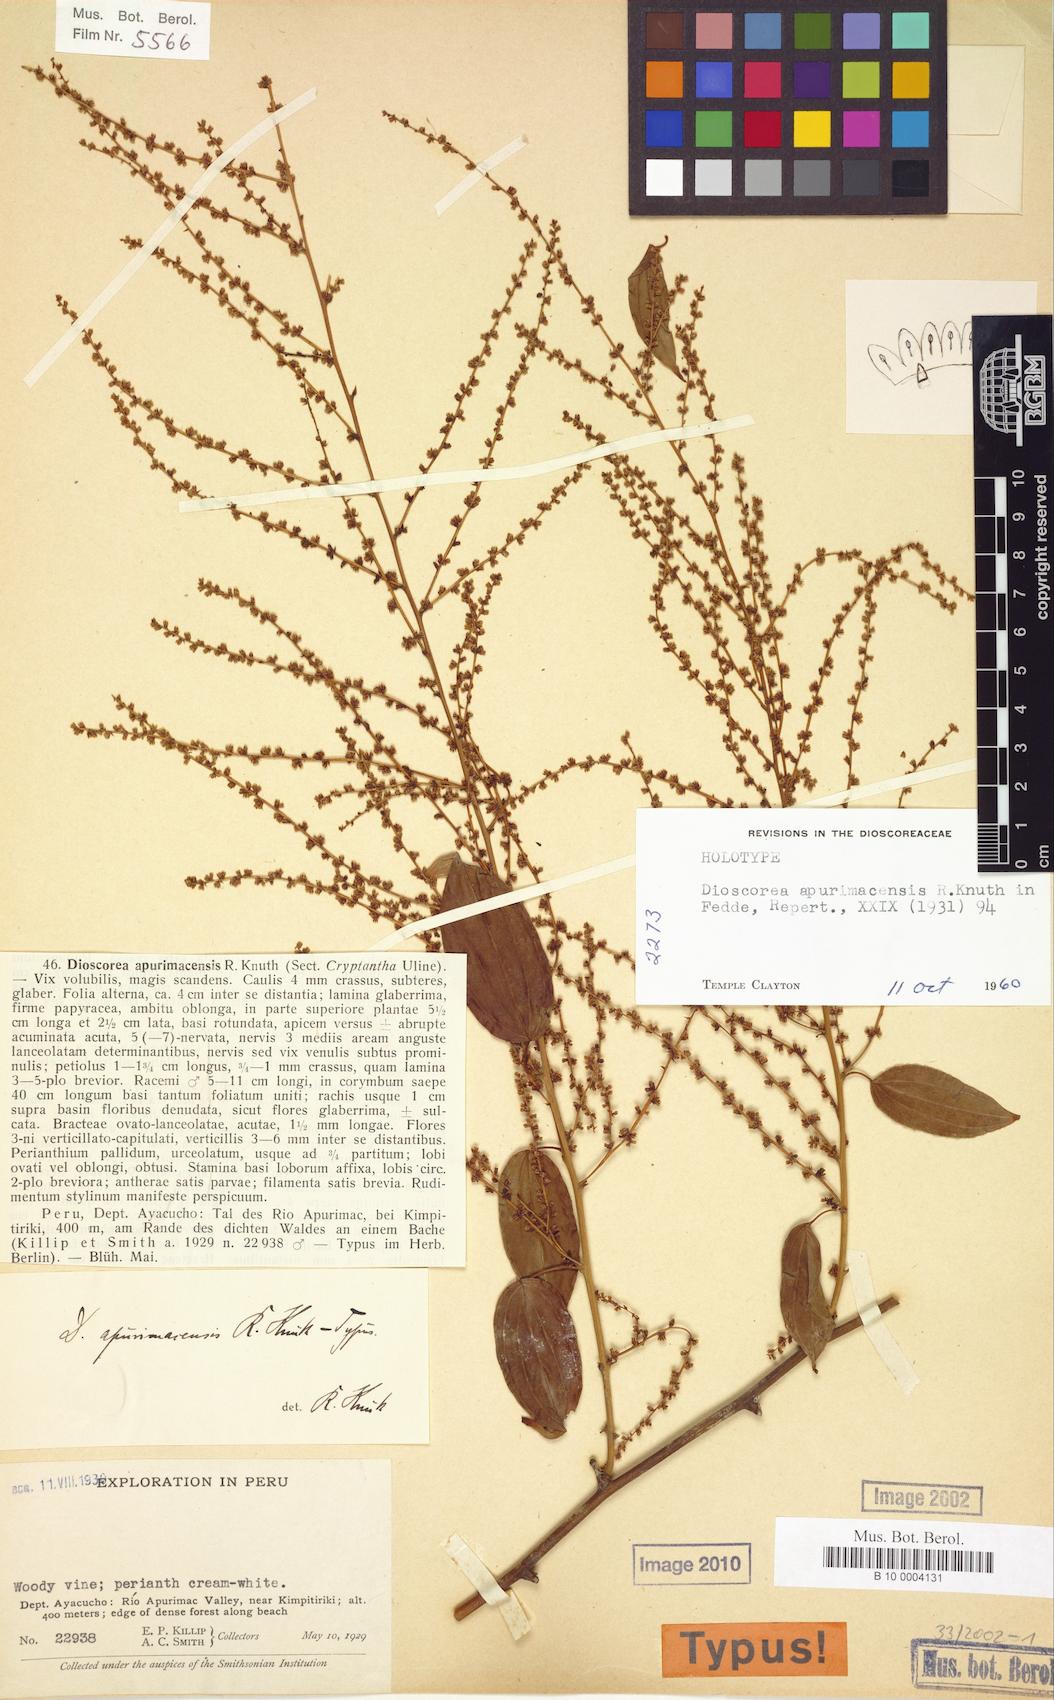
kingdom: Plantae
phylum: Tracheophyta
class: Liliopsida
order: Dioscoreales
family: Dioscoreaceae
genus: Dioscorea
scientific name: Dioscorea acanthogene
